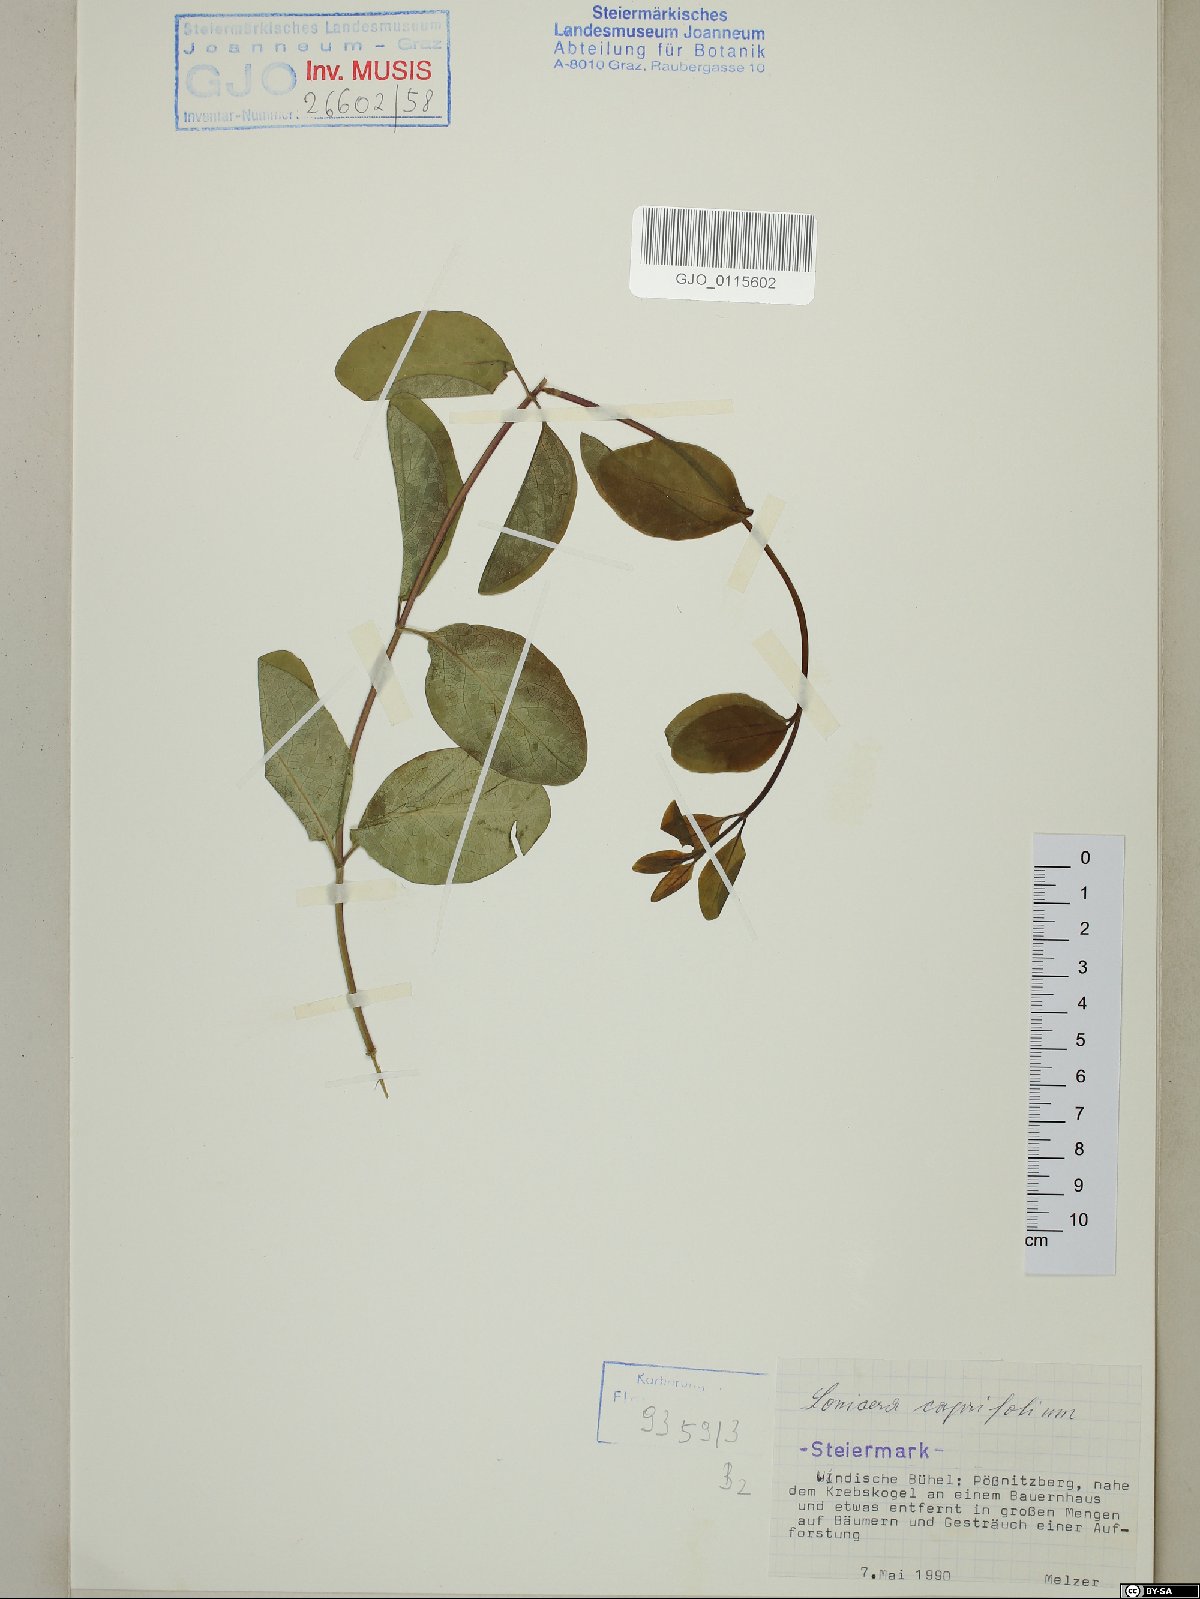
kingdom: Plantae
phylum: Tracheophyta
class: Magnoliopsida
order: Dipsacales
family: Caprifoliaceae
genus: Lonicera
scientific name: Lonicera caprifolium
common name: Perfoliate honeysuckle
